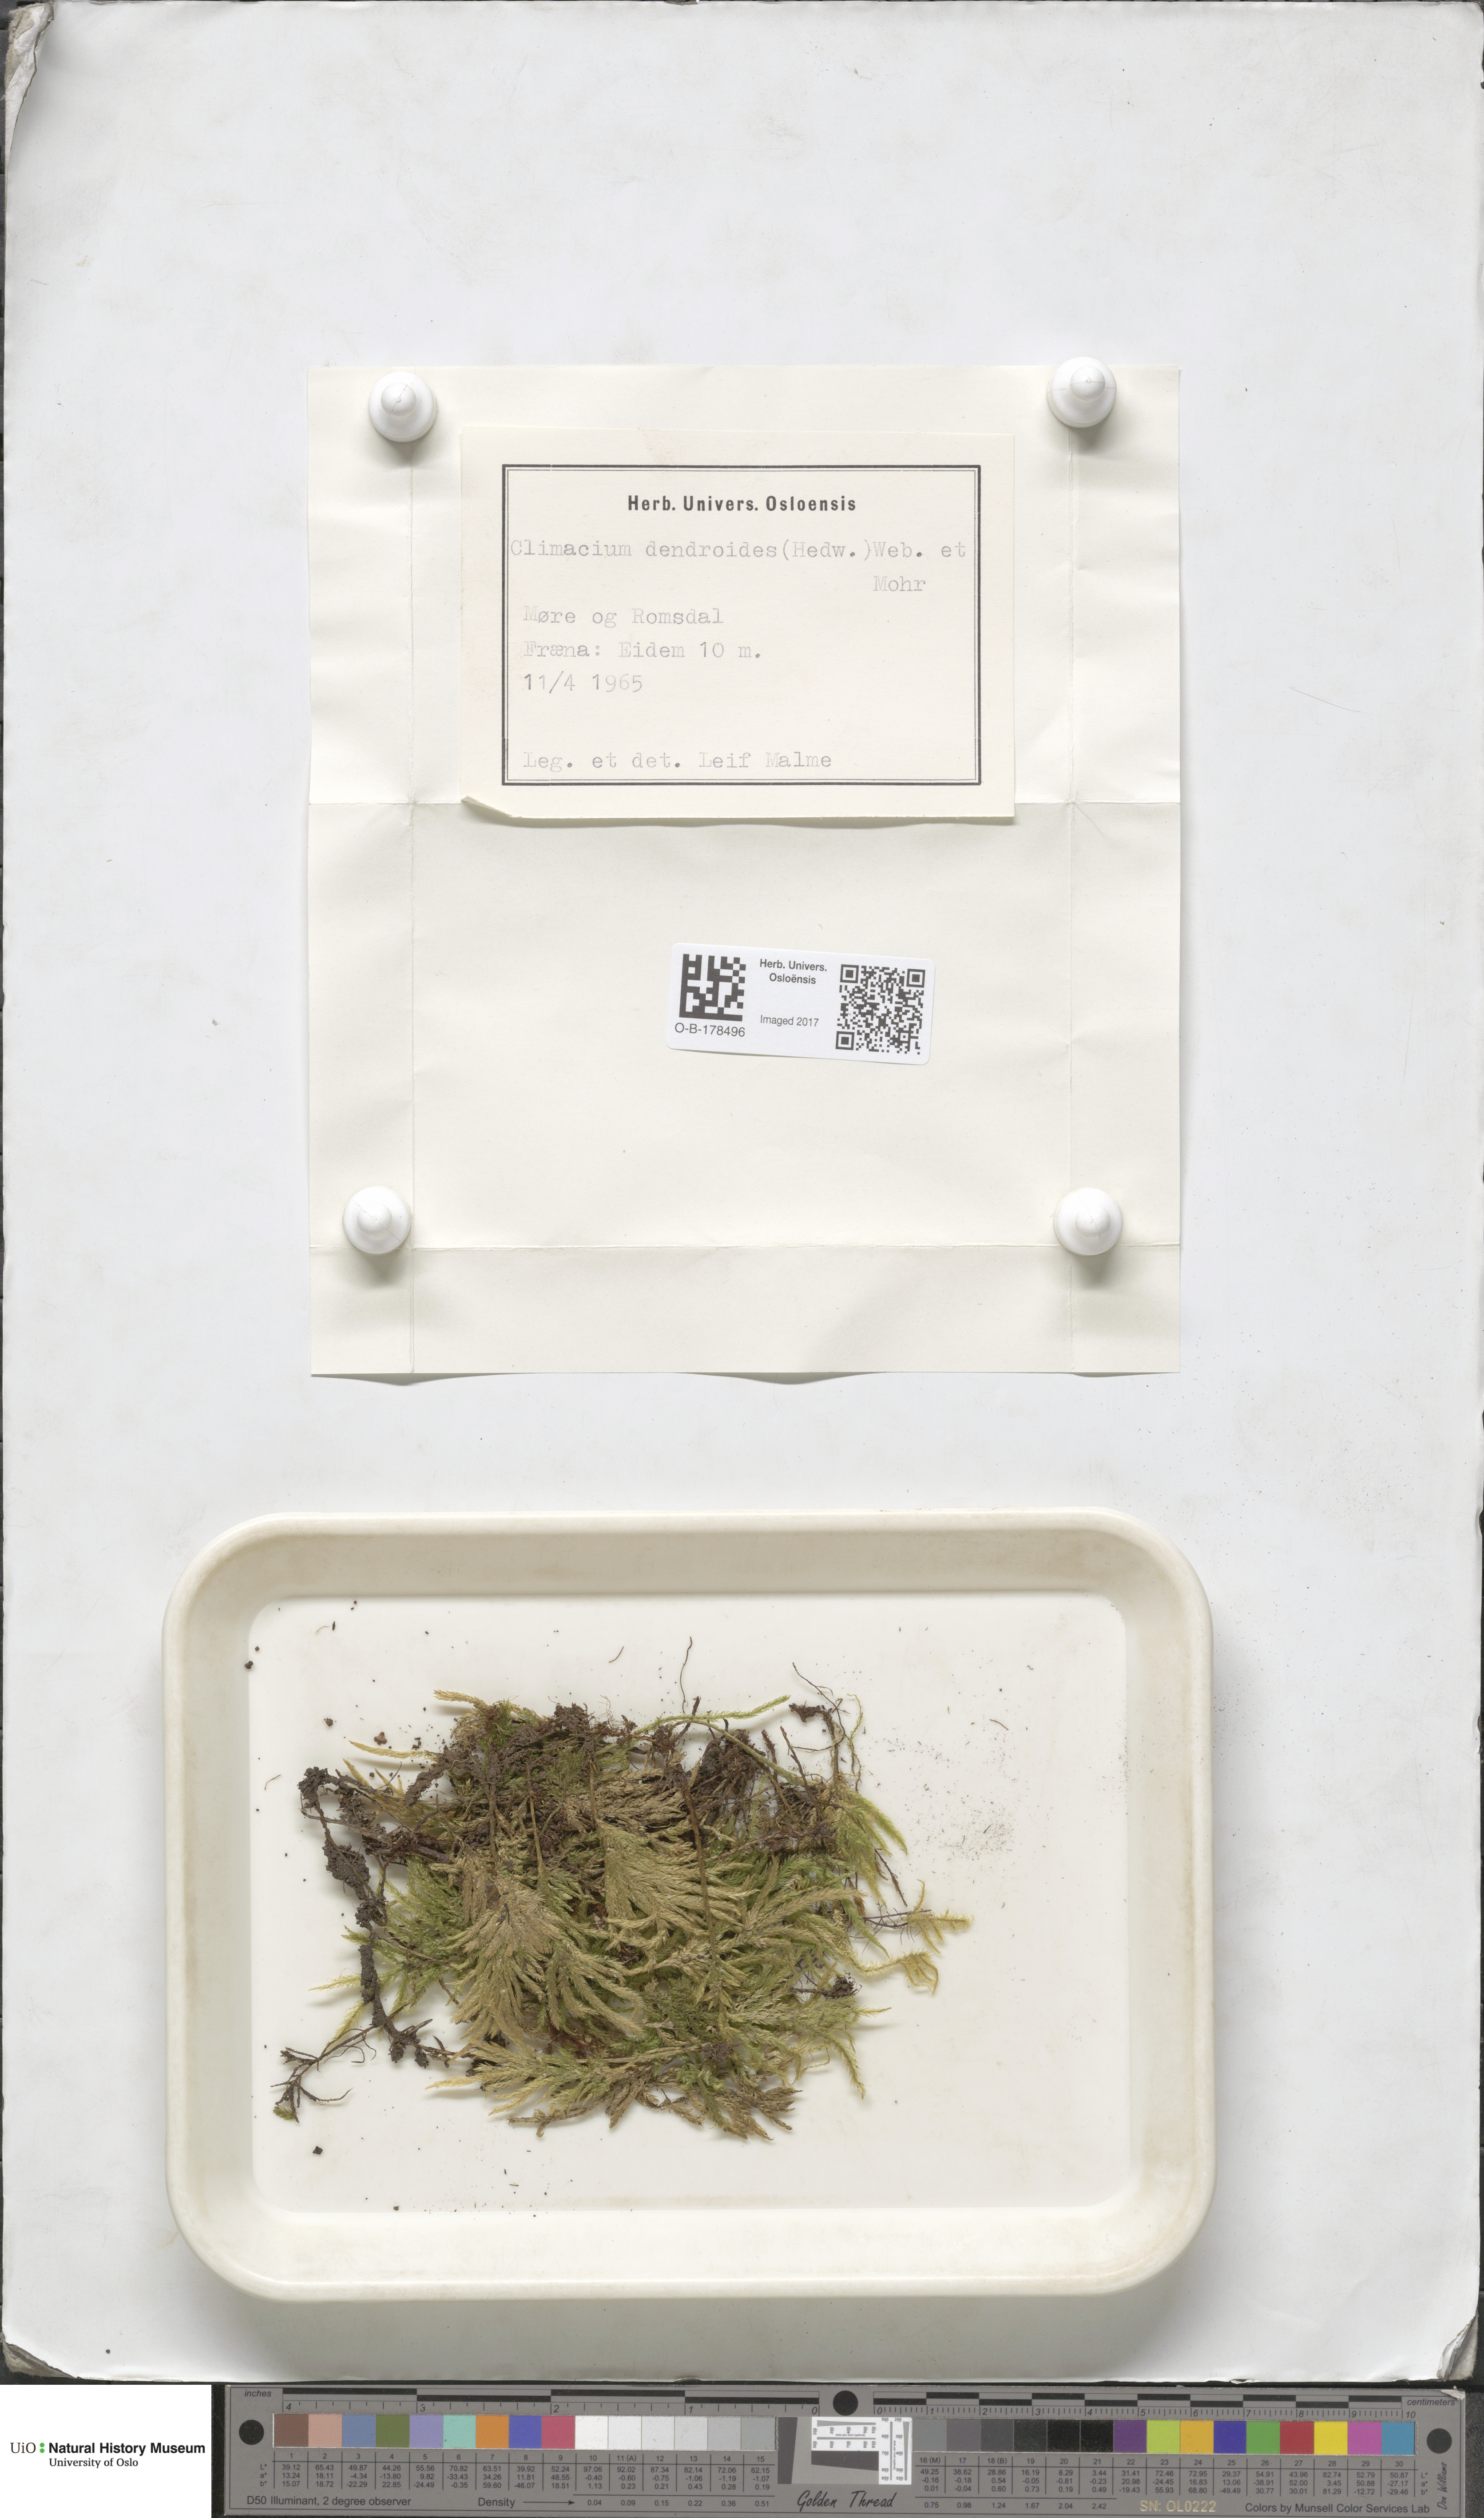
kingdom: Plantae
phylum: Bryophyta
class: Bryopsida
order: Hypnales
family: Climaciaceae
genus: Climacium
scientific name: Climacium dendroides
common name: Northern tree moss
